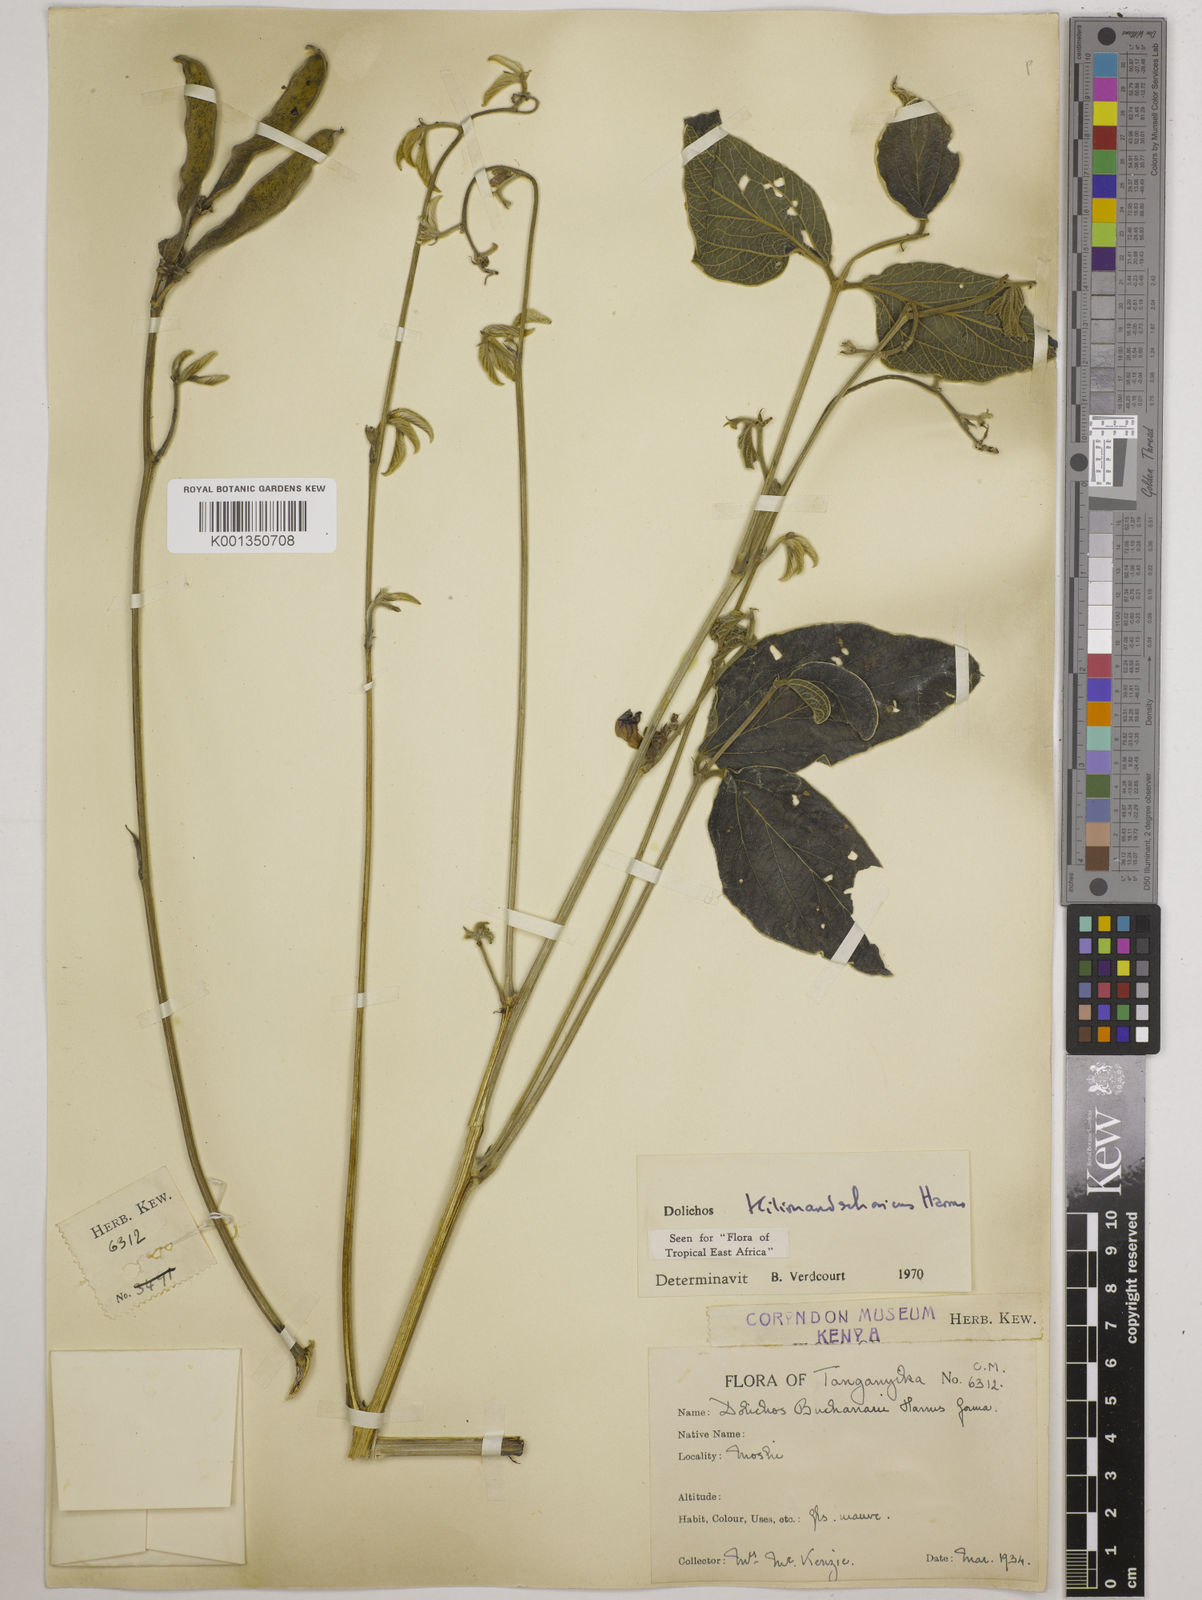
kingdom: Plantae
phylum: Tracheophyta
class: Magnoliopsida
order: Fabales
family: Fabaceae
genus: Dolichos
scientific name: Dolichos kilimandscharicus
